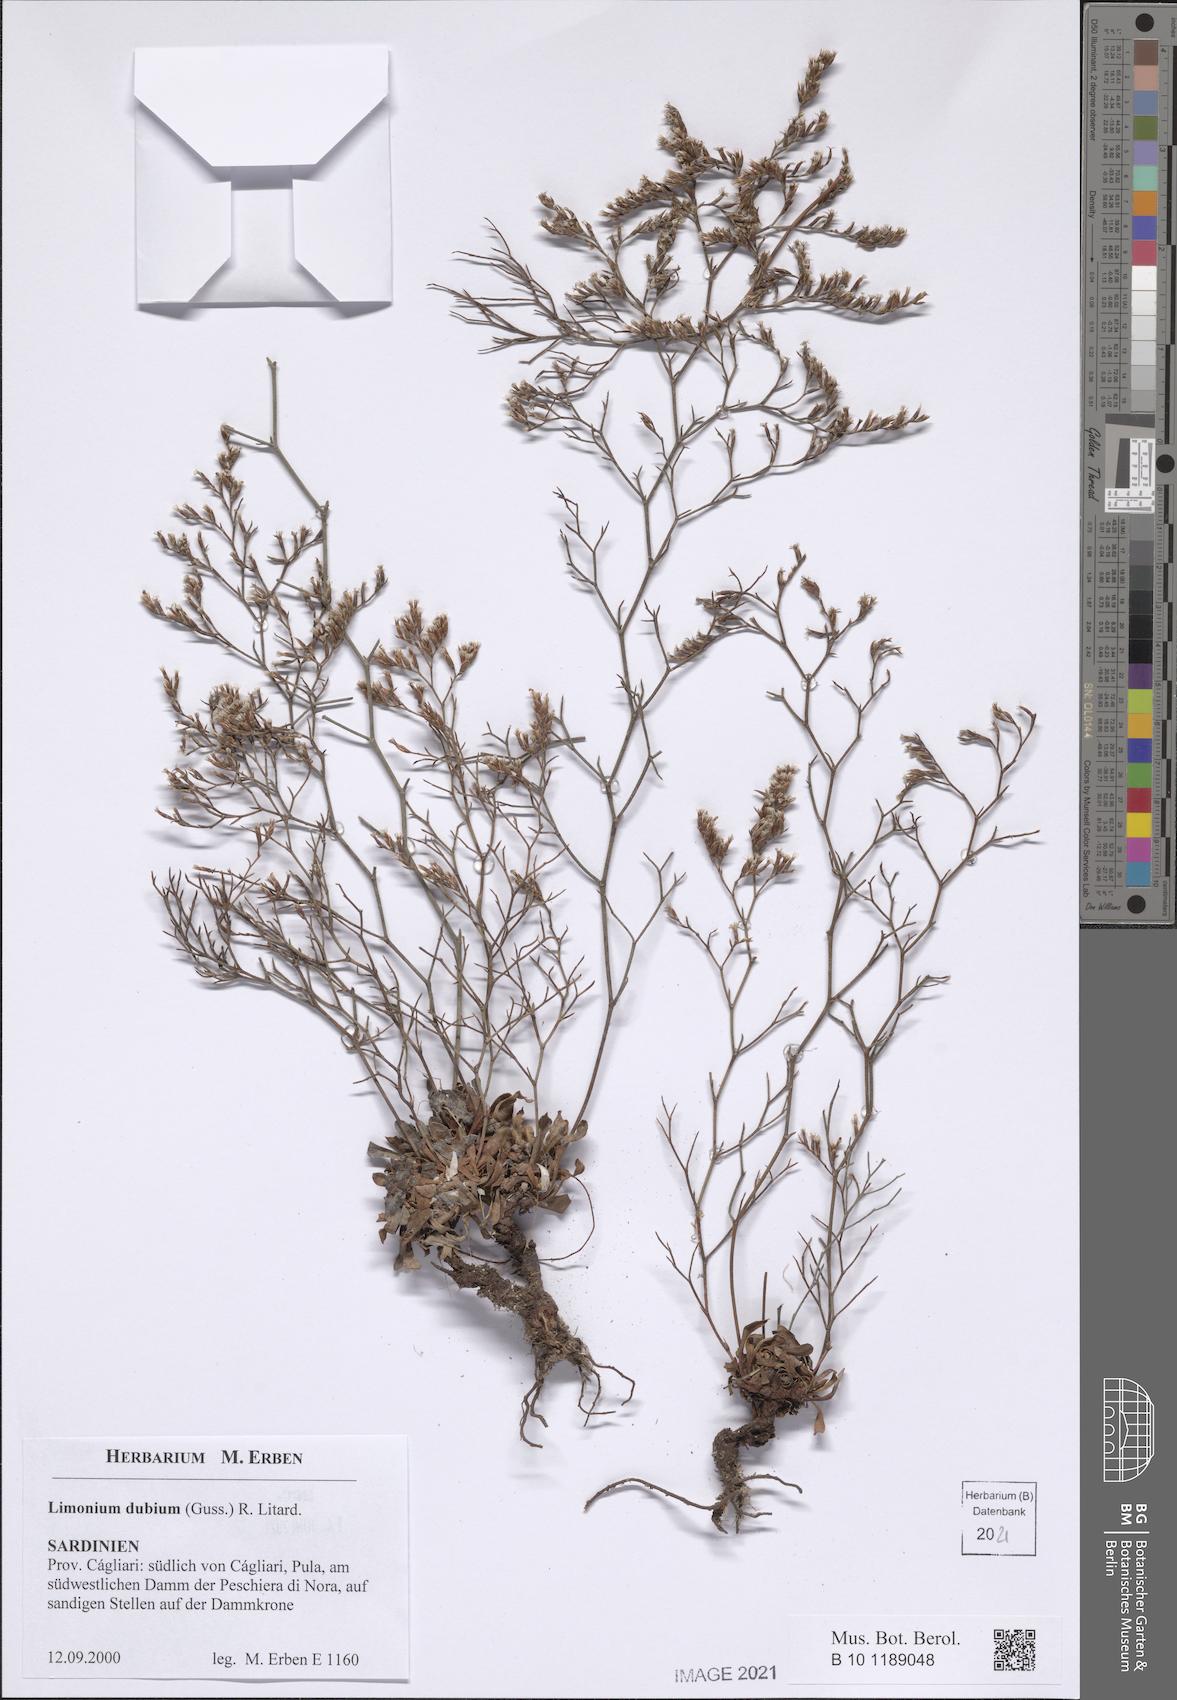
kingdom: Plantae
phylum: Tracheophyta
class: Magnoliopsida
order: Caryophyllales
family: Plumbaginaceae
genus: Limonium
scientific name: Limonium dubium
